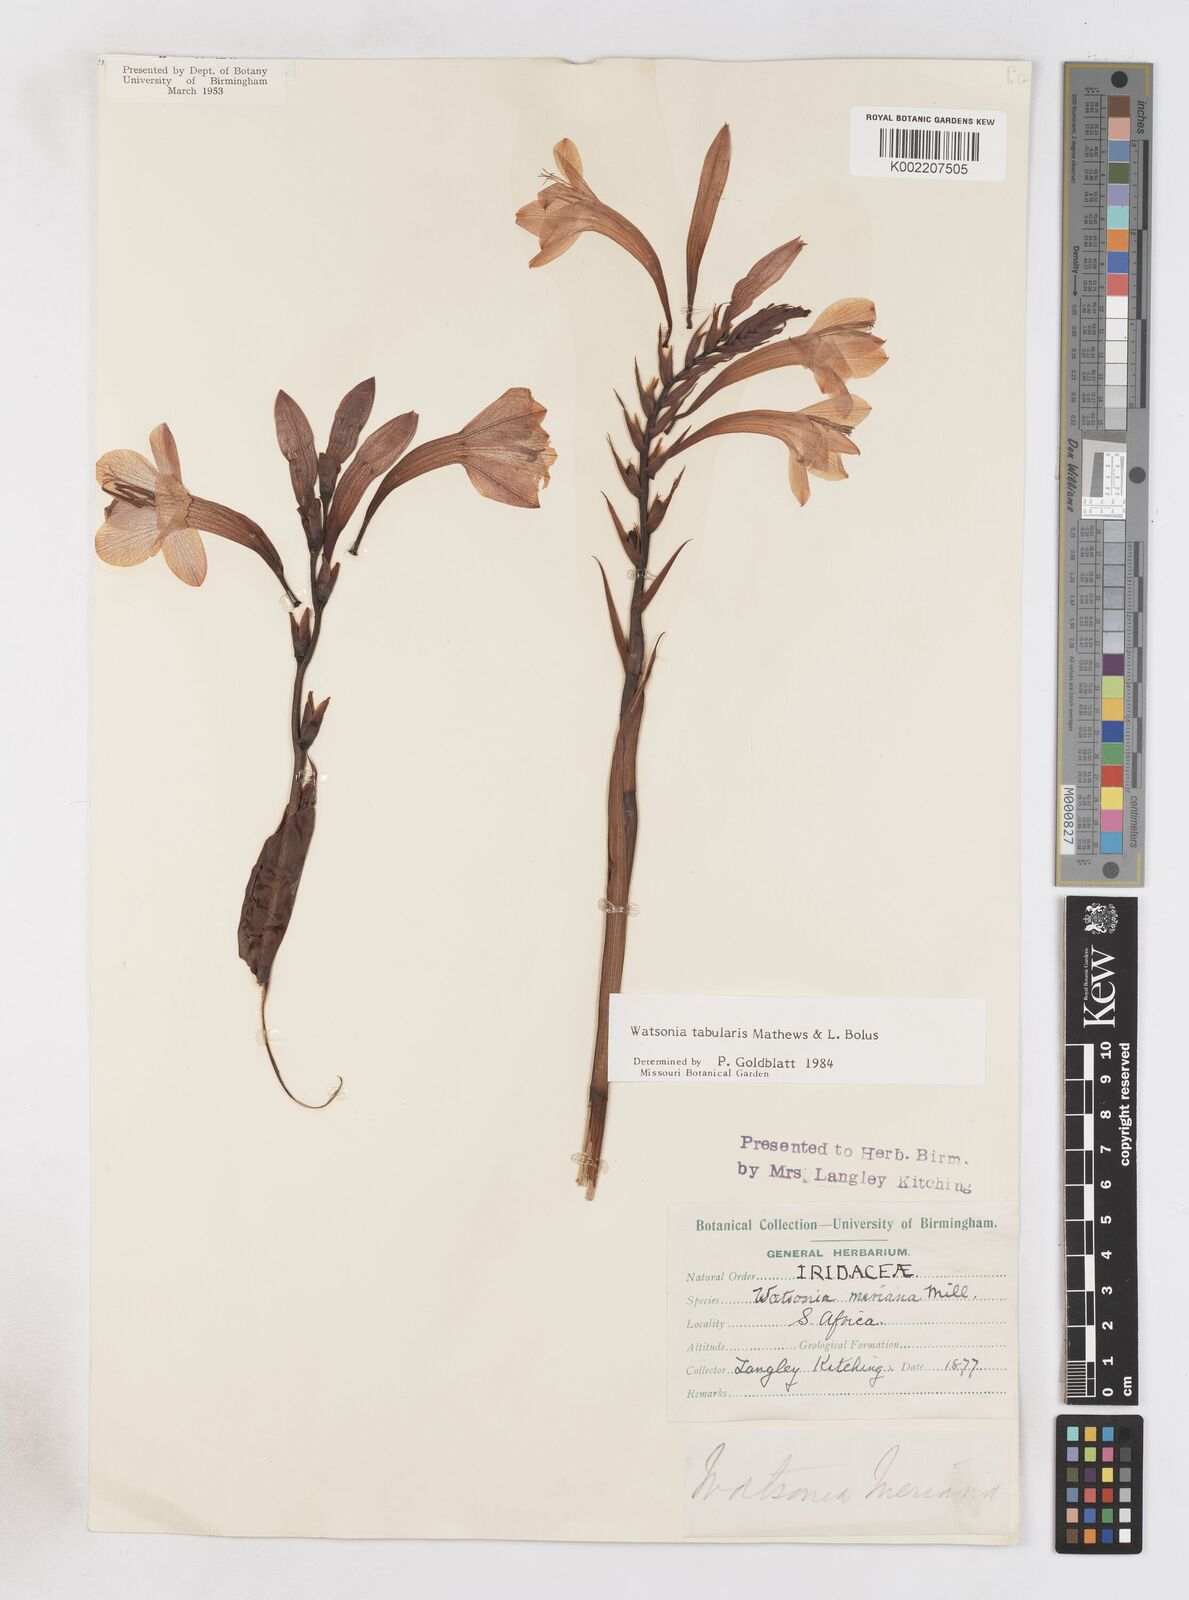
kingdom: Plantae
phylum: Tracheophyta
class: Liliopsida
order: Asparagales
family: Iridaceae
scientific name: Iridaceae
